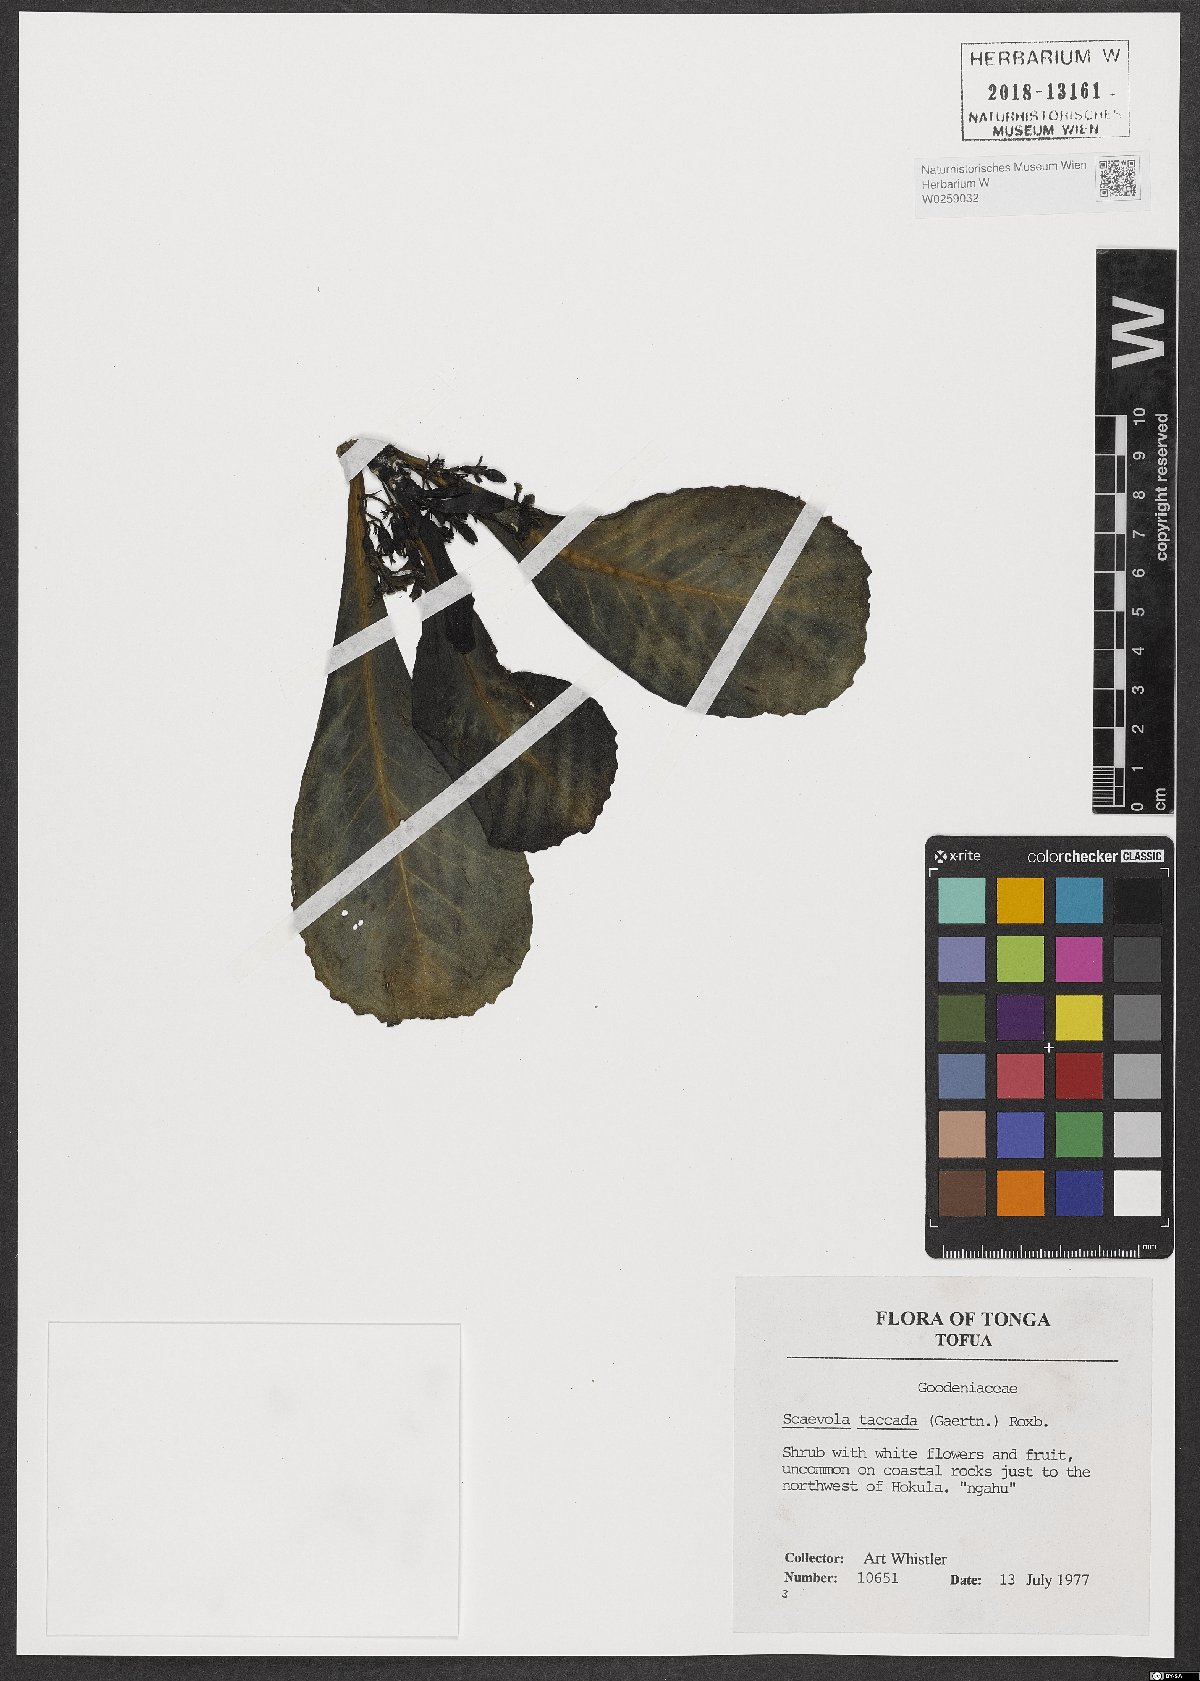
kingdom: Plantae
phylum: Tracheophyta
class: Magnoliopsida
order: Asterales
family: Goodeniaceae
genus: Scaevola
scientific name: Scaevola taccada
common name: Sea lettucetree
